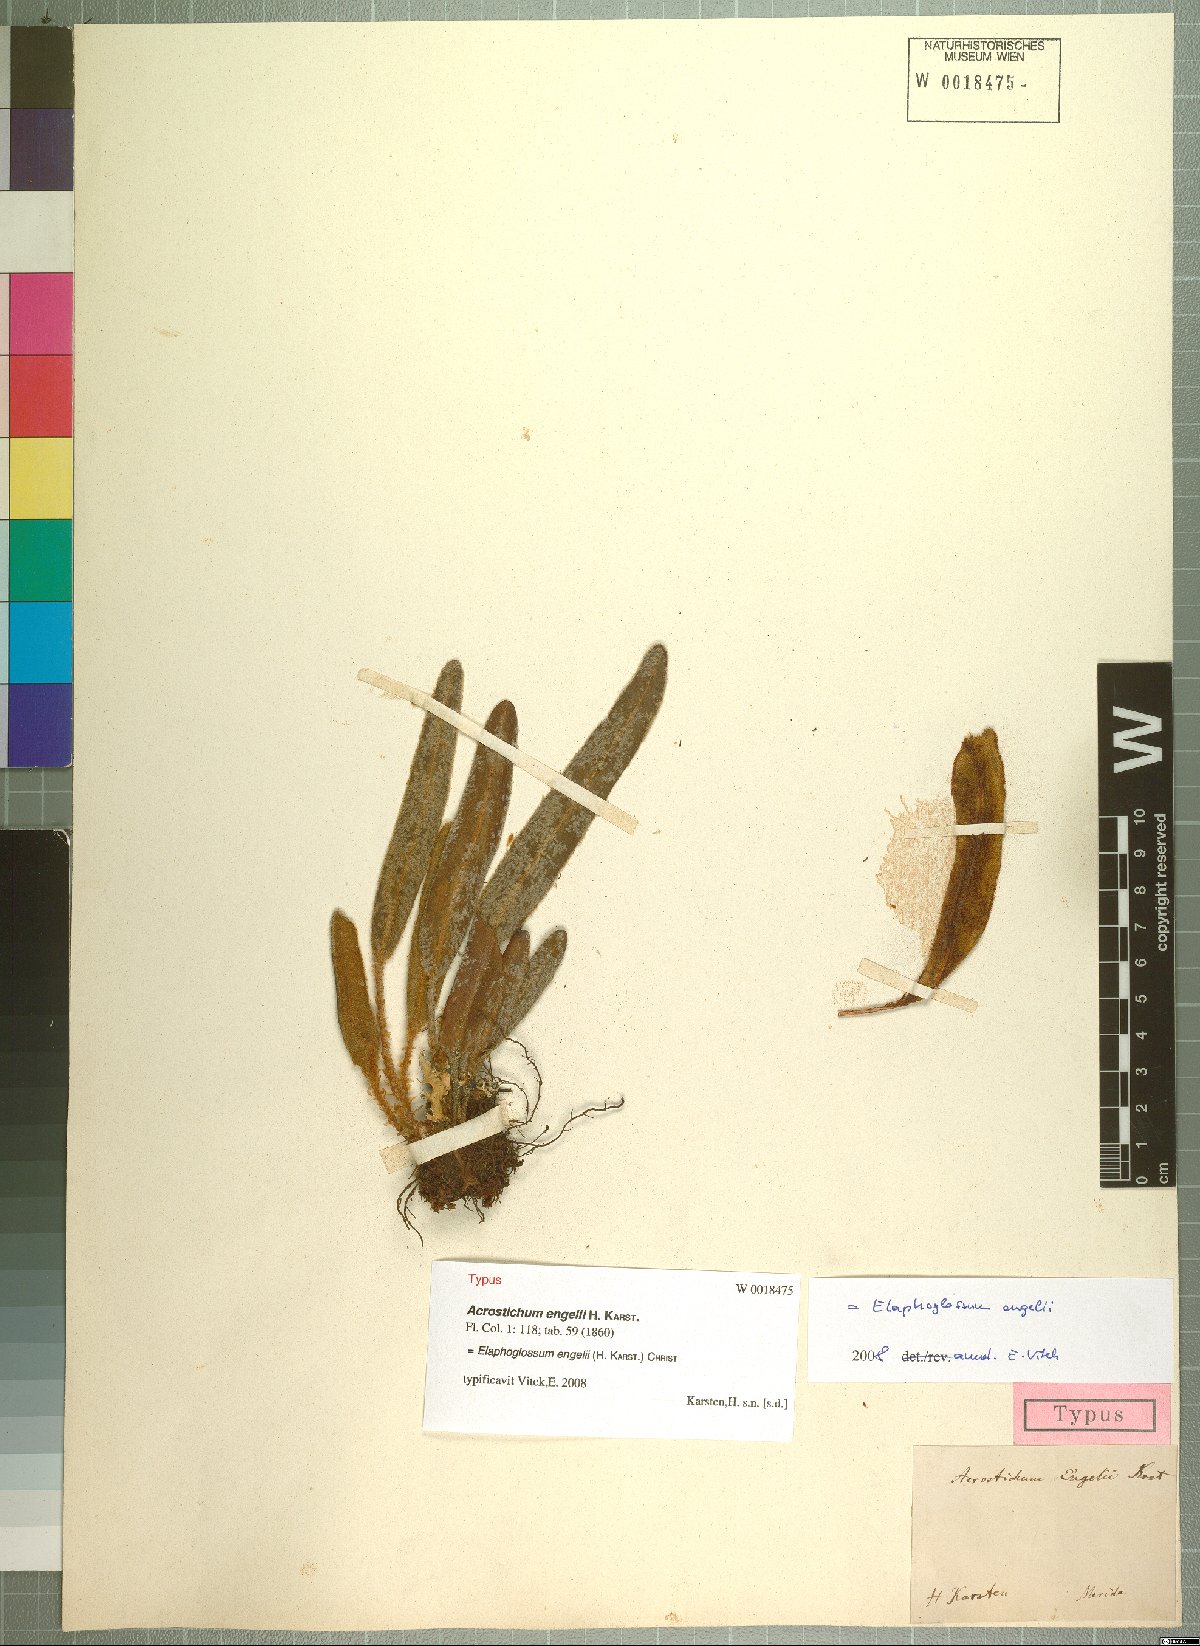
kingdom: Plantae
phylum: Tracheophyta
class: Polypodiopsida
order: Polypodiales
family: Dryopteridaceae
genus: Elaphoglossum
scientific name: Elaphoglossum engelii
